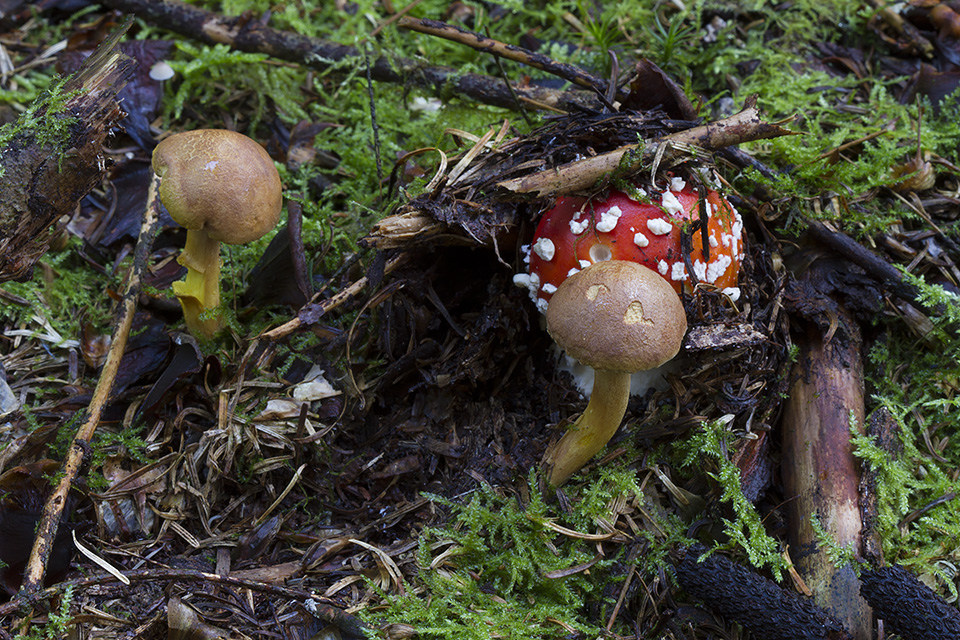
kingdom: Fungi
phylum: Basidiomycota
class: Agaricomycetes
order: Boletales
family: Boletaceae
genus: Chalciporus
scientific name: Chalciporus piperatus
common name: peberrørhat
